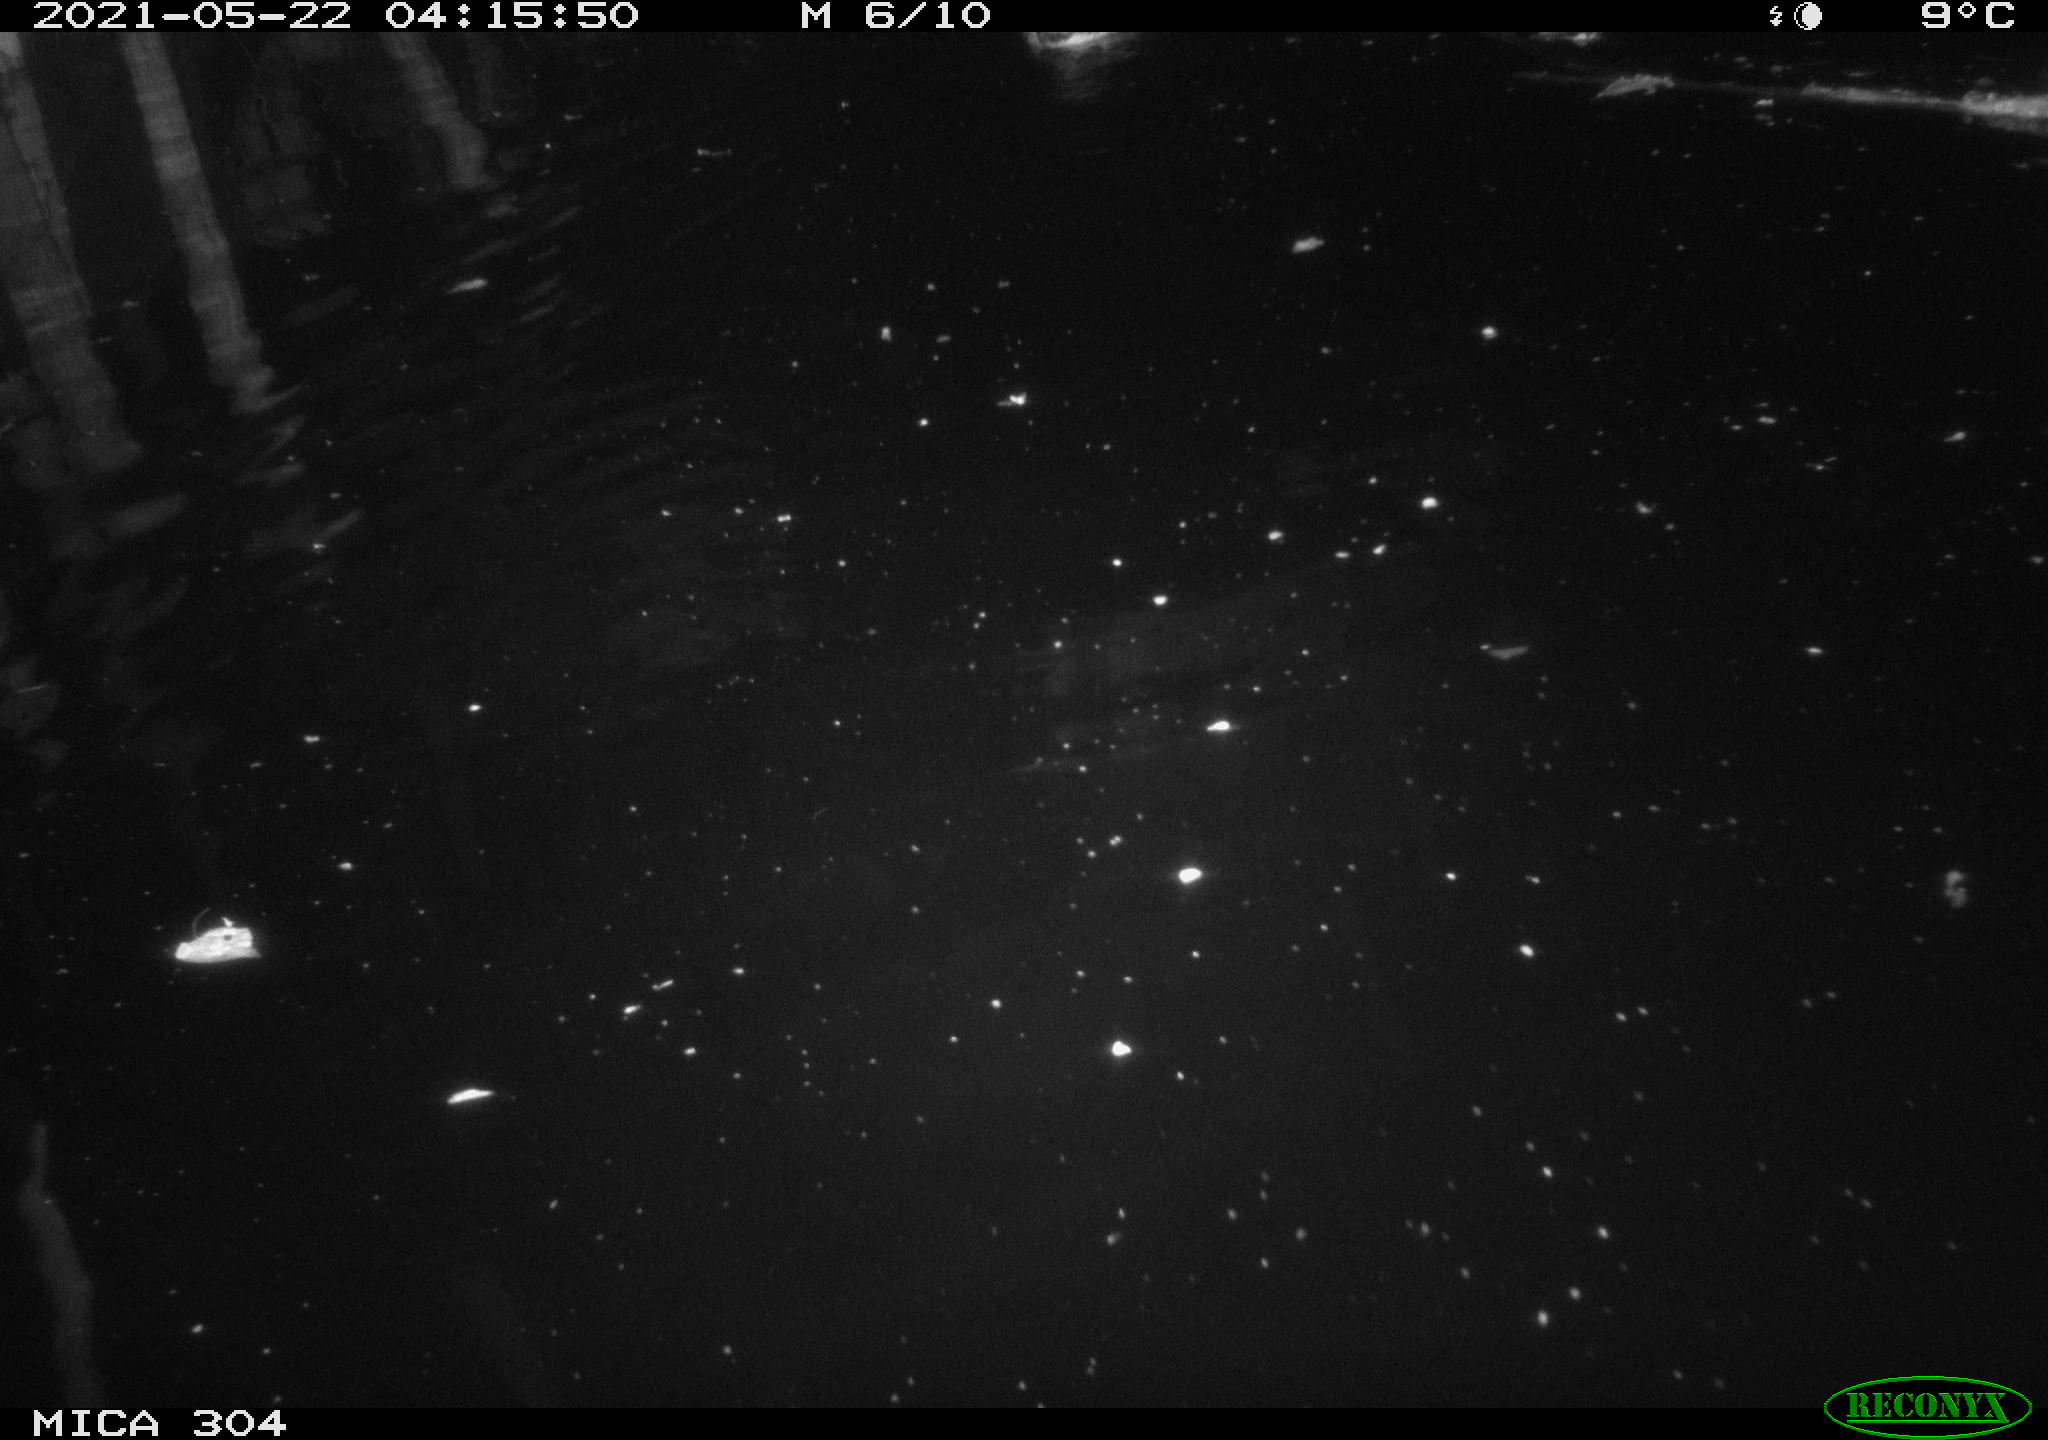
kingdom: Animalia
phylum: Chordata
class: Aves
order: Anseriformes
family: Anatidae
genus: Mareca
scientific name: Mareca strepera
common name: Gadwall
